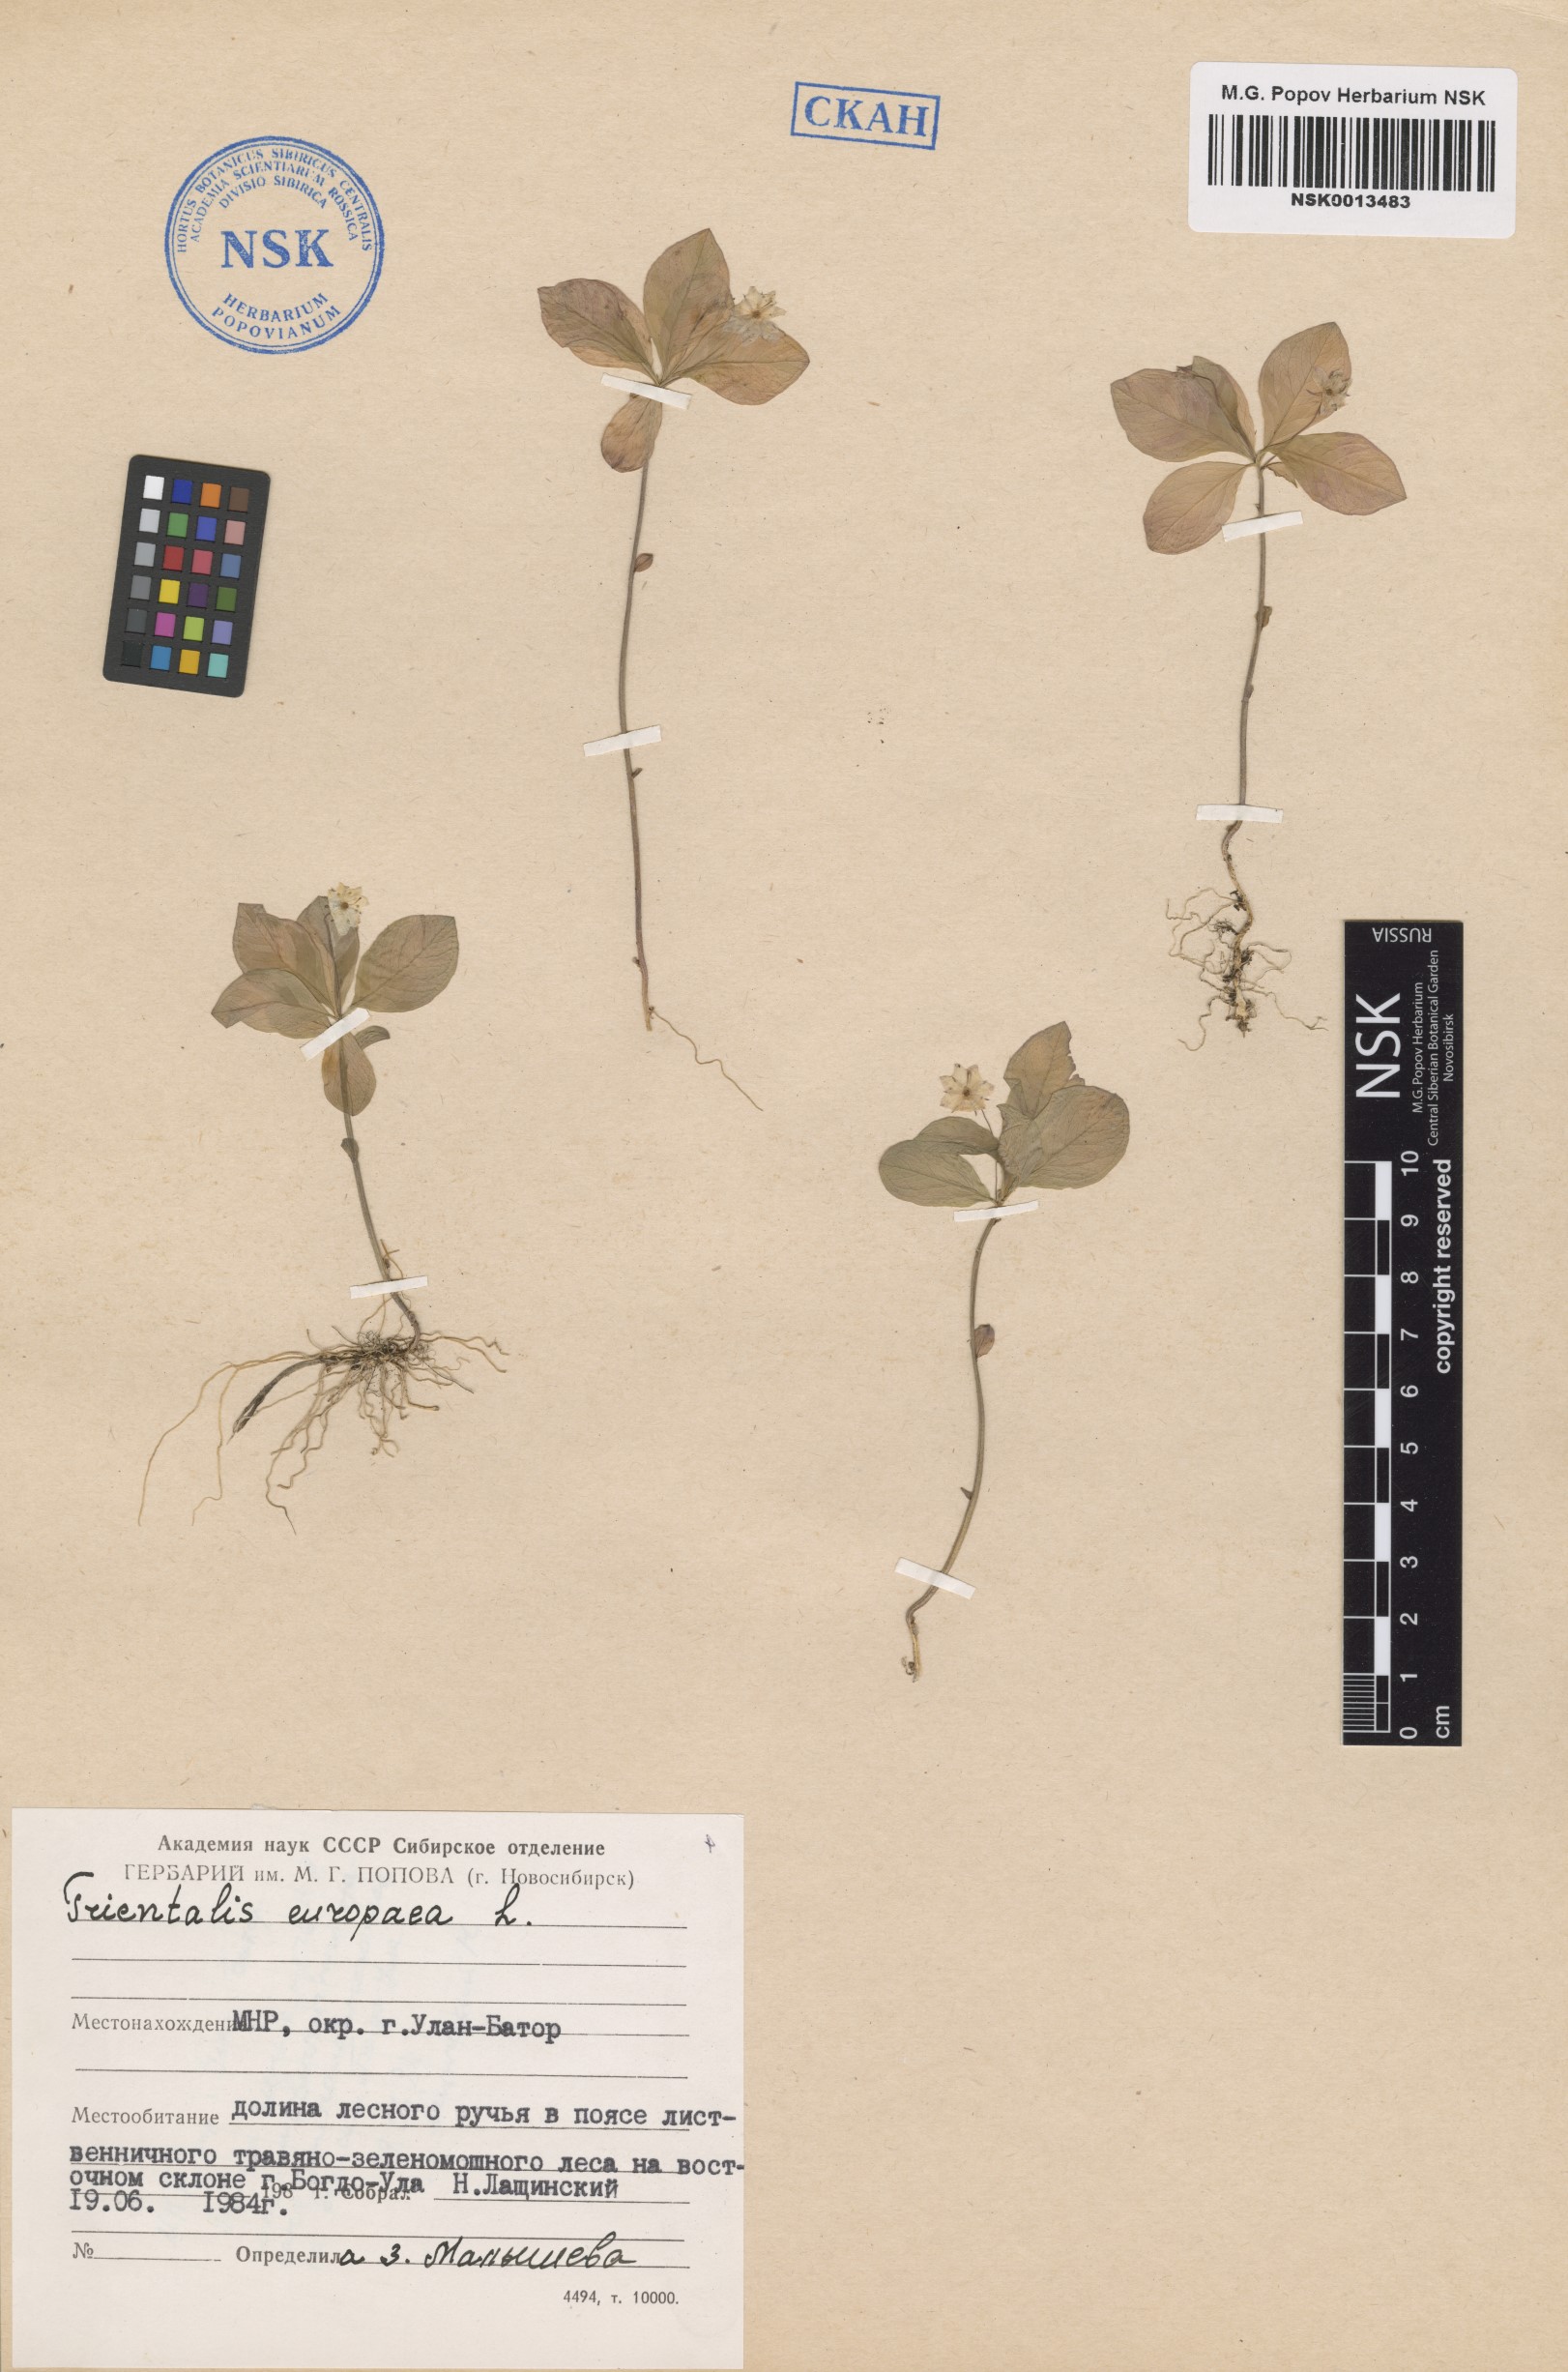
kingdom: Plantae
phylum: Tracheophyta
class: Magnoliopsida
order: Ericales
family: Primulaceae
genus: Lysimachia
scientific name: Lysimachia europaea
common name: Arctic starflower
